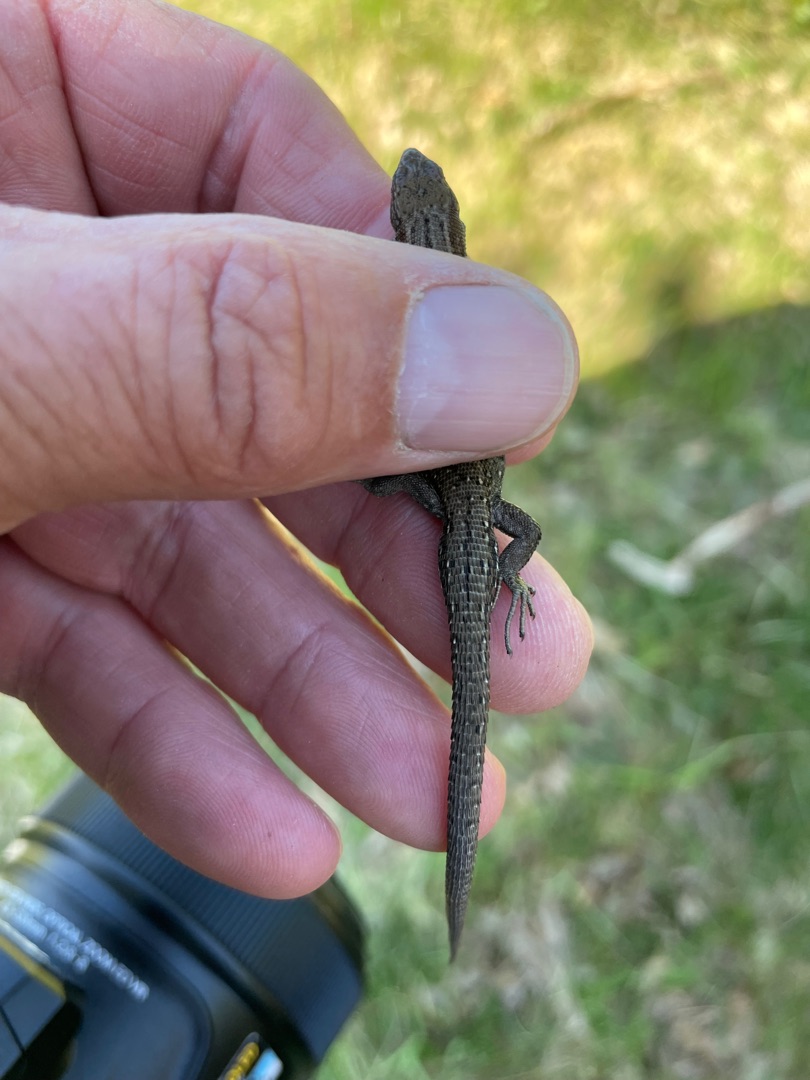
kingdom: Animalia
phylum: Chordata
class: Squamata
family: Lacertidae
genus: Zootoca
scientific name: Zootoca vivipara
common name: Skovfirben
